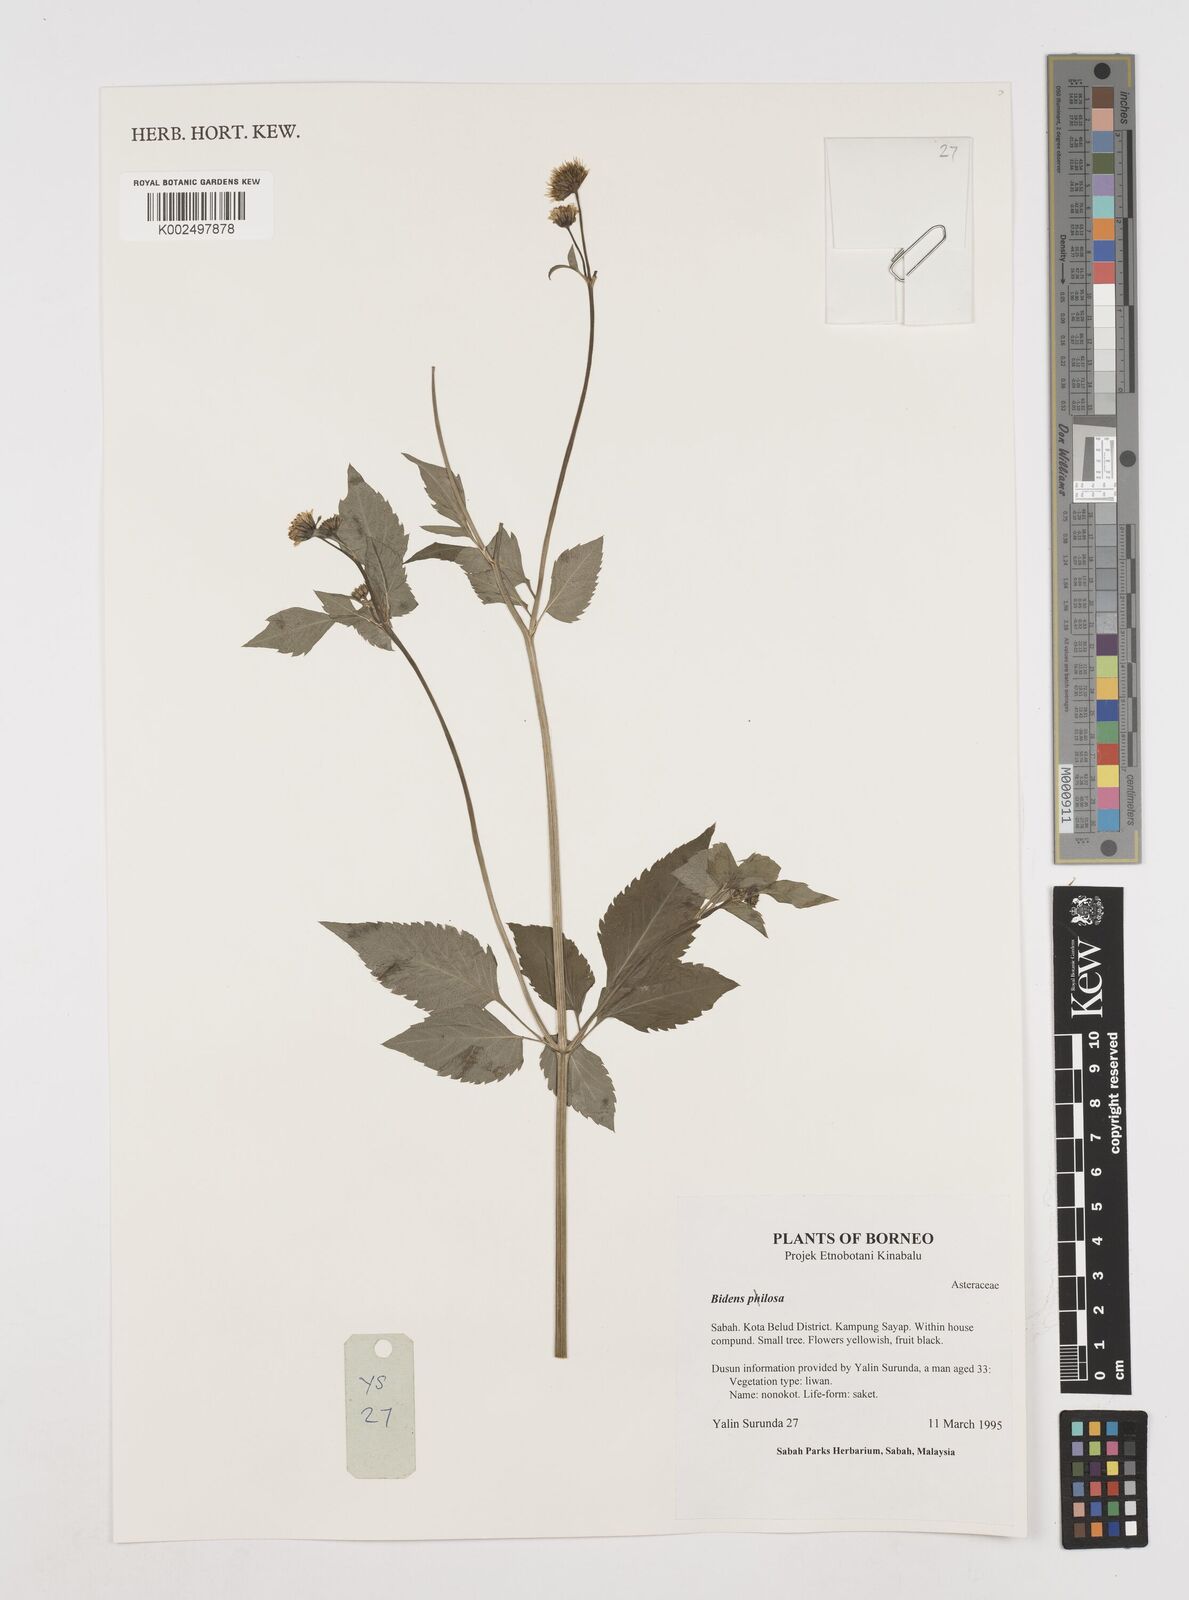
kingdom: Plantae
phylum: Tracheophyta
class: Magnoliopsida
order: Asterales
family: Asteraceae
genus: Bidens
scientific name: Bidens pilosa
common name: Black-jack
